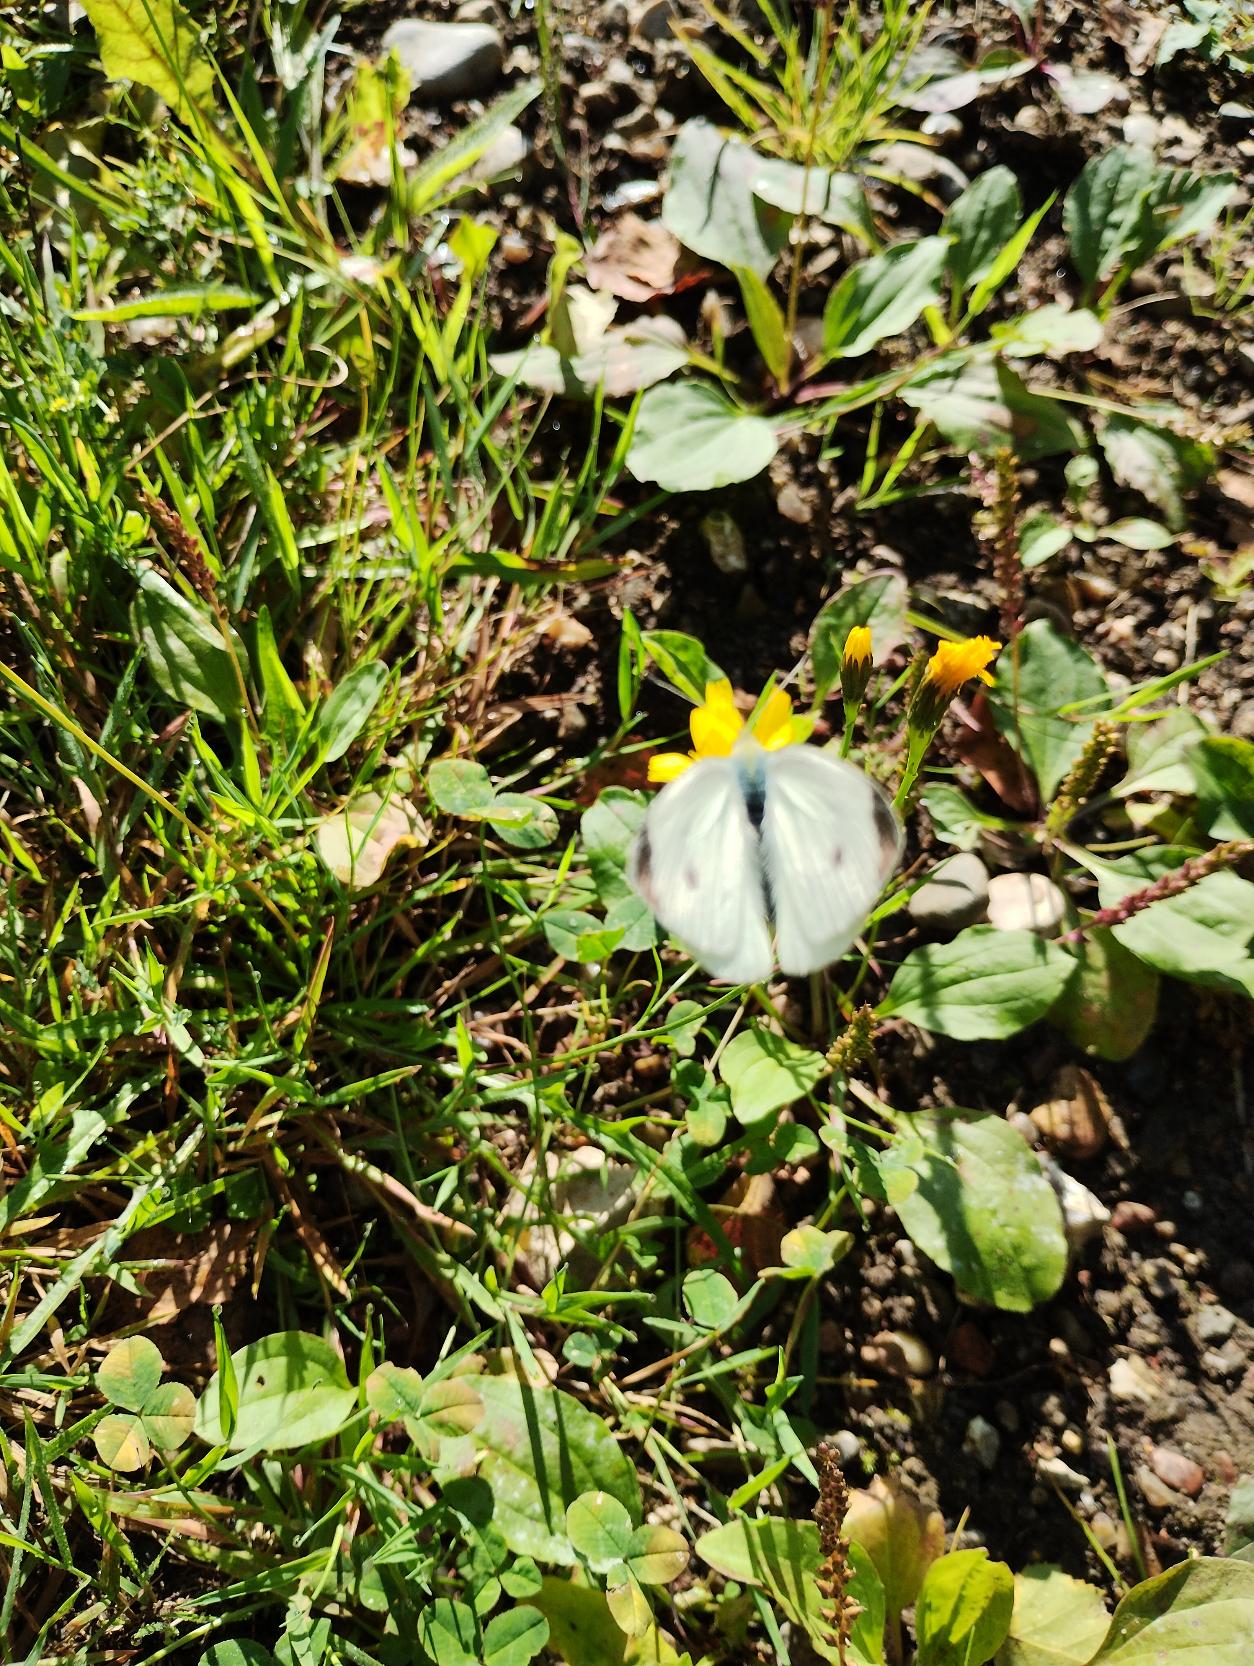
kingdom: Animalia
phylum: Arthropoda
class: Insecta
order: Lepidoptera
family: Pieridae
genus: Pieris
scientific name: Pieris rapae
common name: Lille kålsommerfugl
